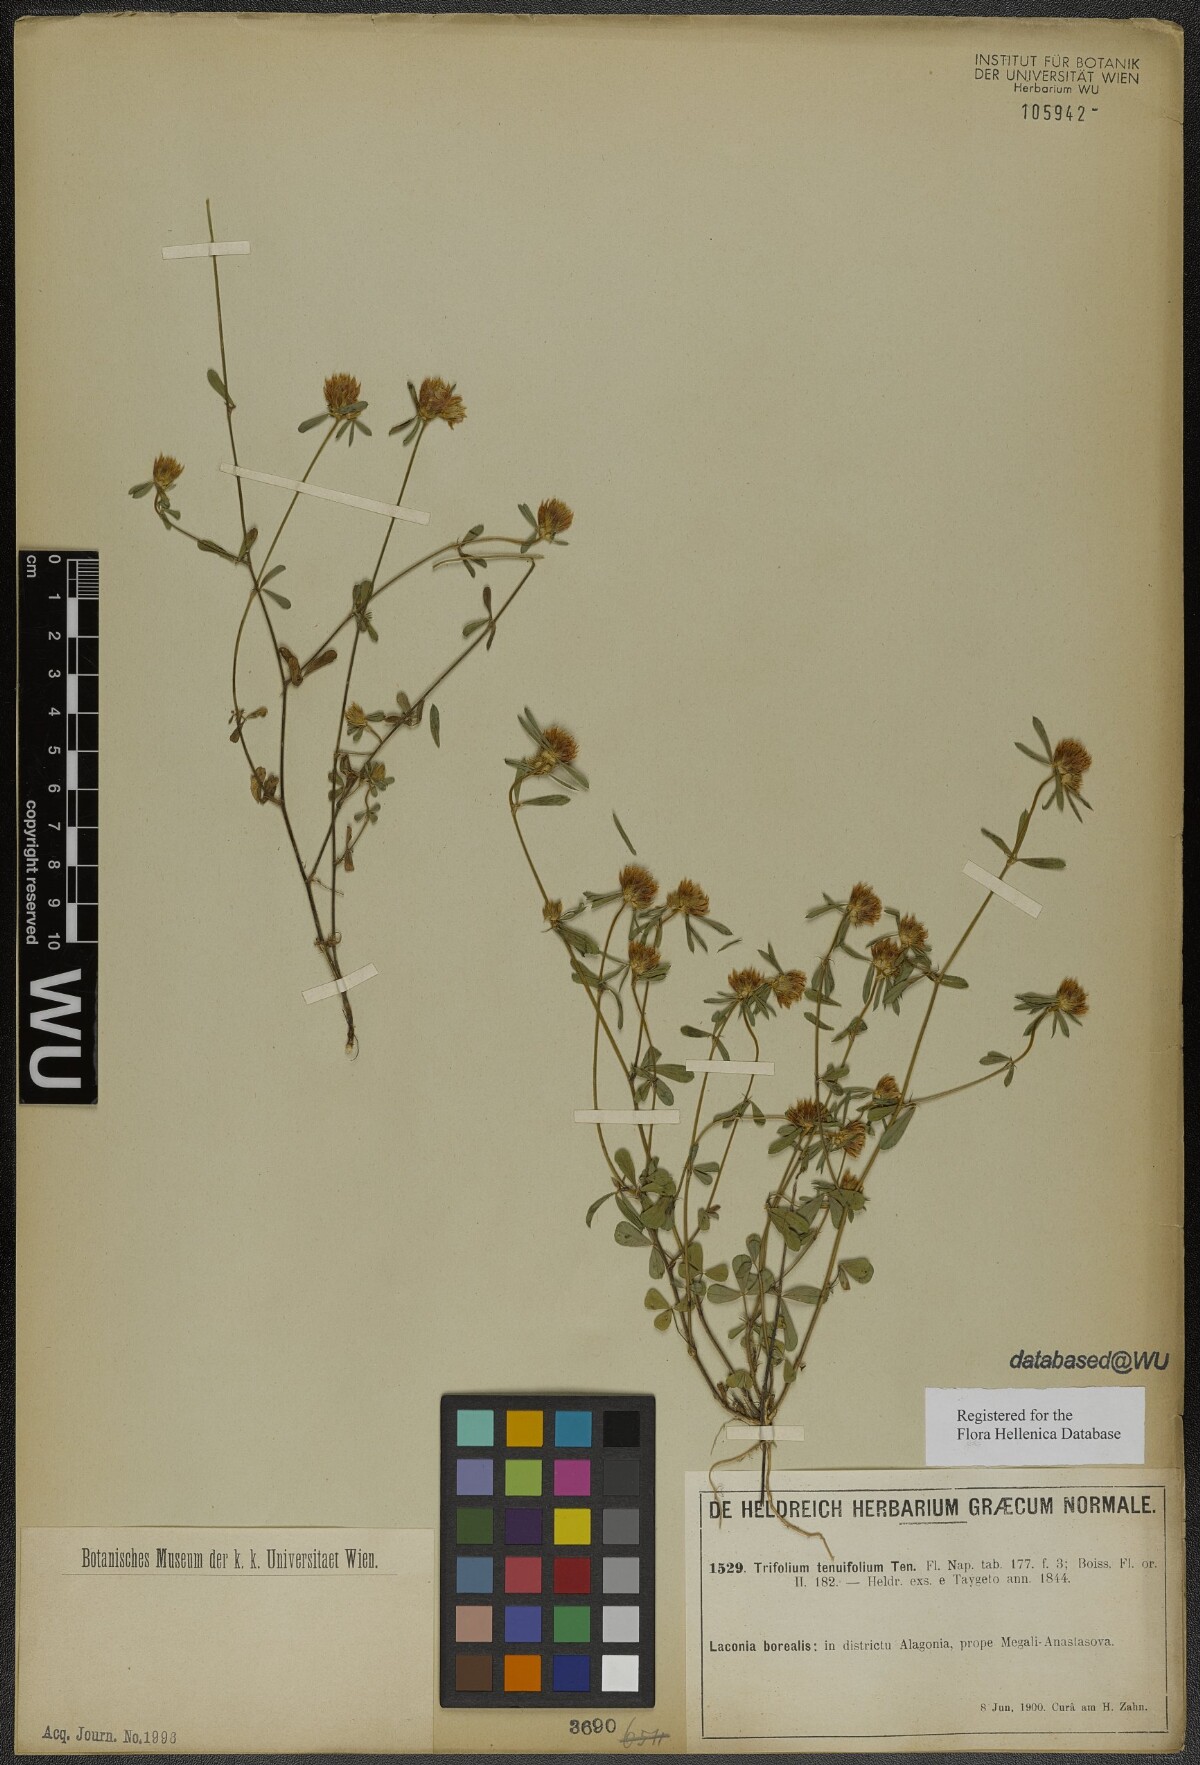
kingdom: Plantae
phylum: Tracheophyta
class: Magnoliopsida
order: Fabales
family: Fabaceae
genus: Trifolium
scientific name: Trifolium tenuifolium
